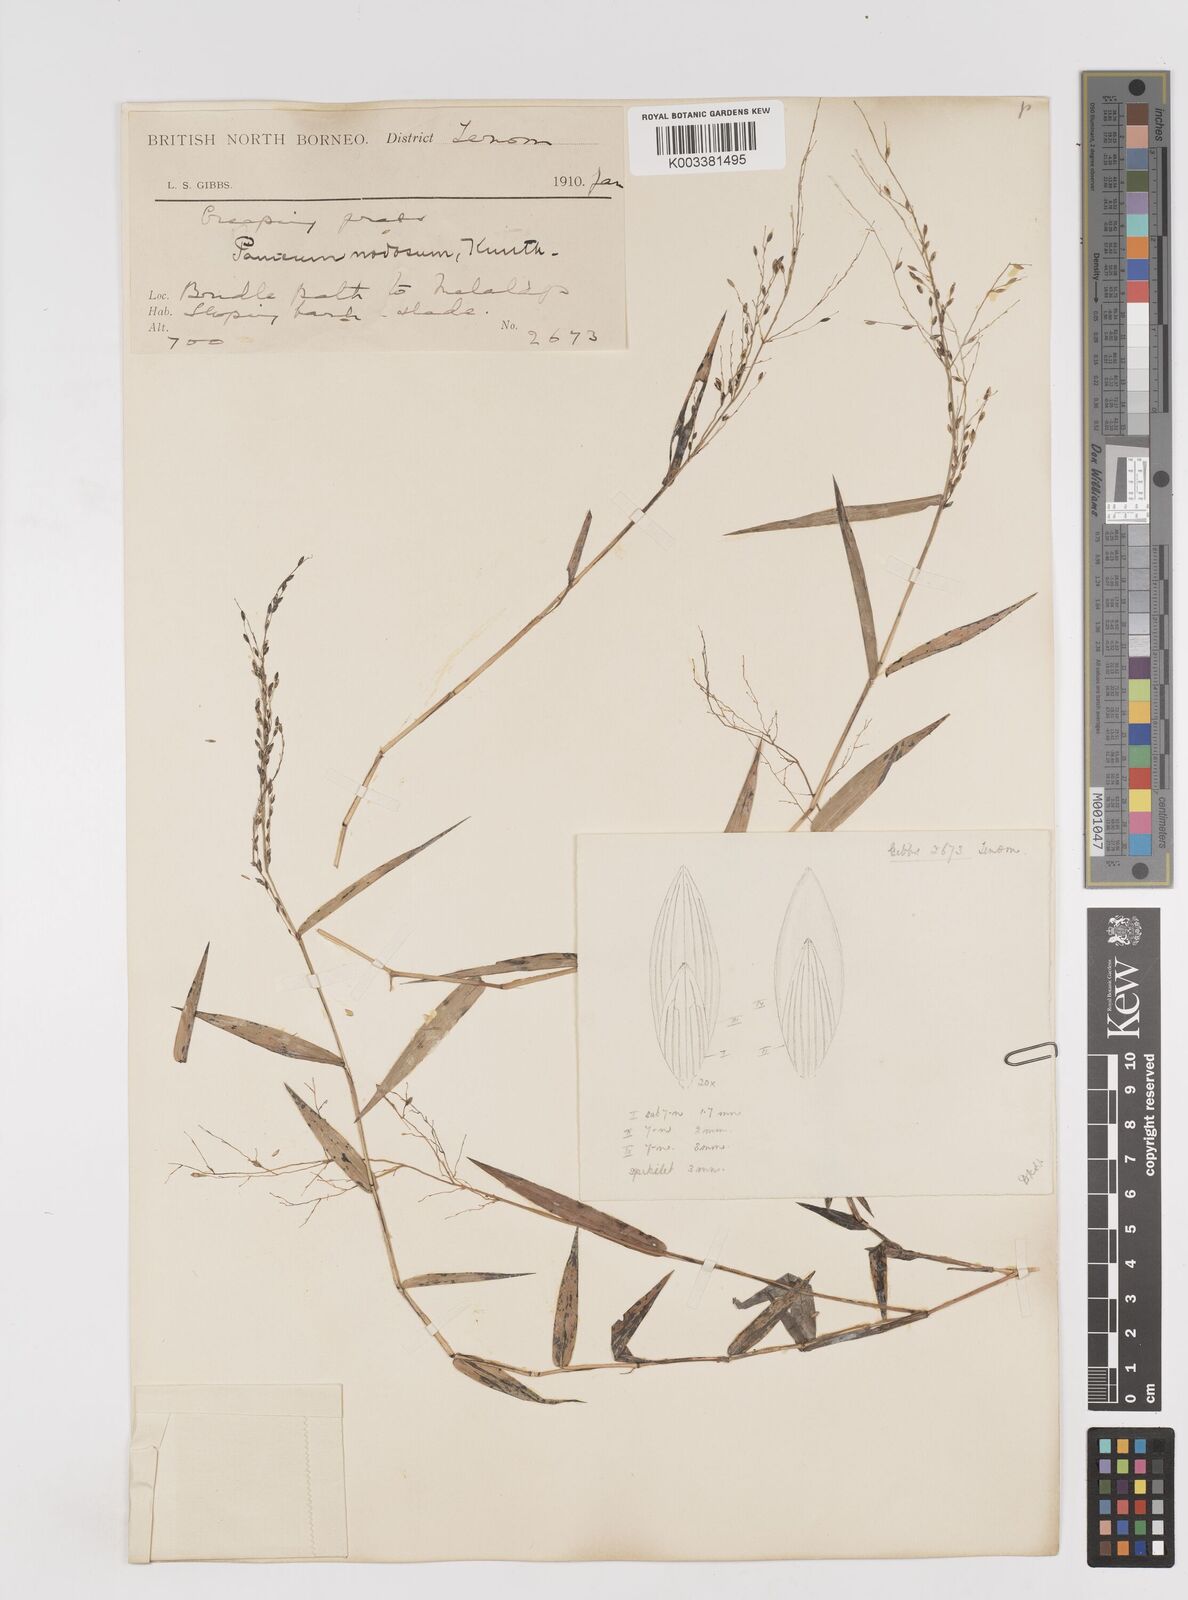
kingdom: Plantae
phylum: Tracheophyta
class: Liliopsida
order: Poales
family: Poaceae
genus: Ottochloa
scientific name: Ottochloa nodosa
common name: Slender-panic grass
